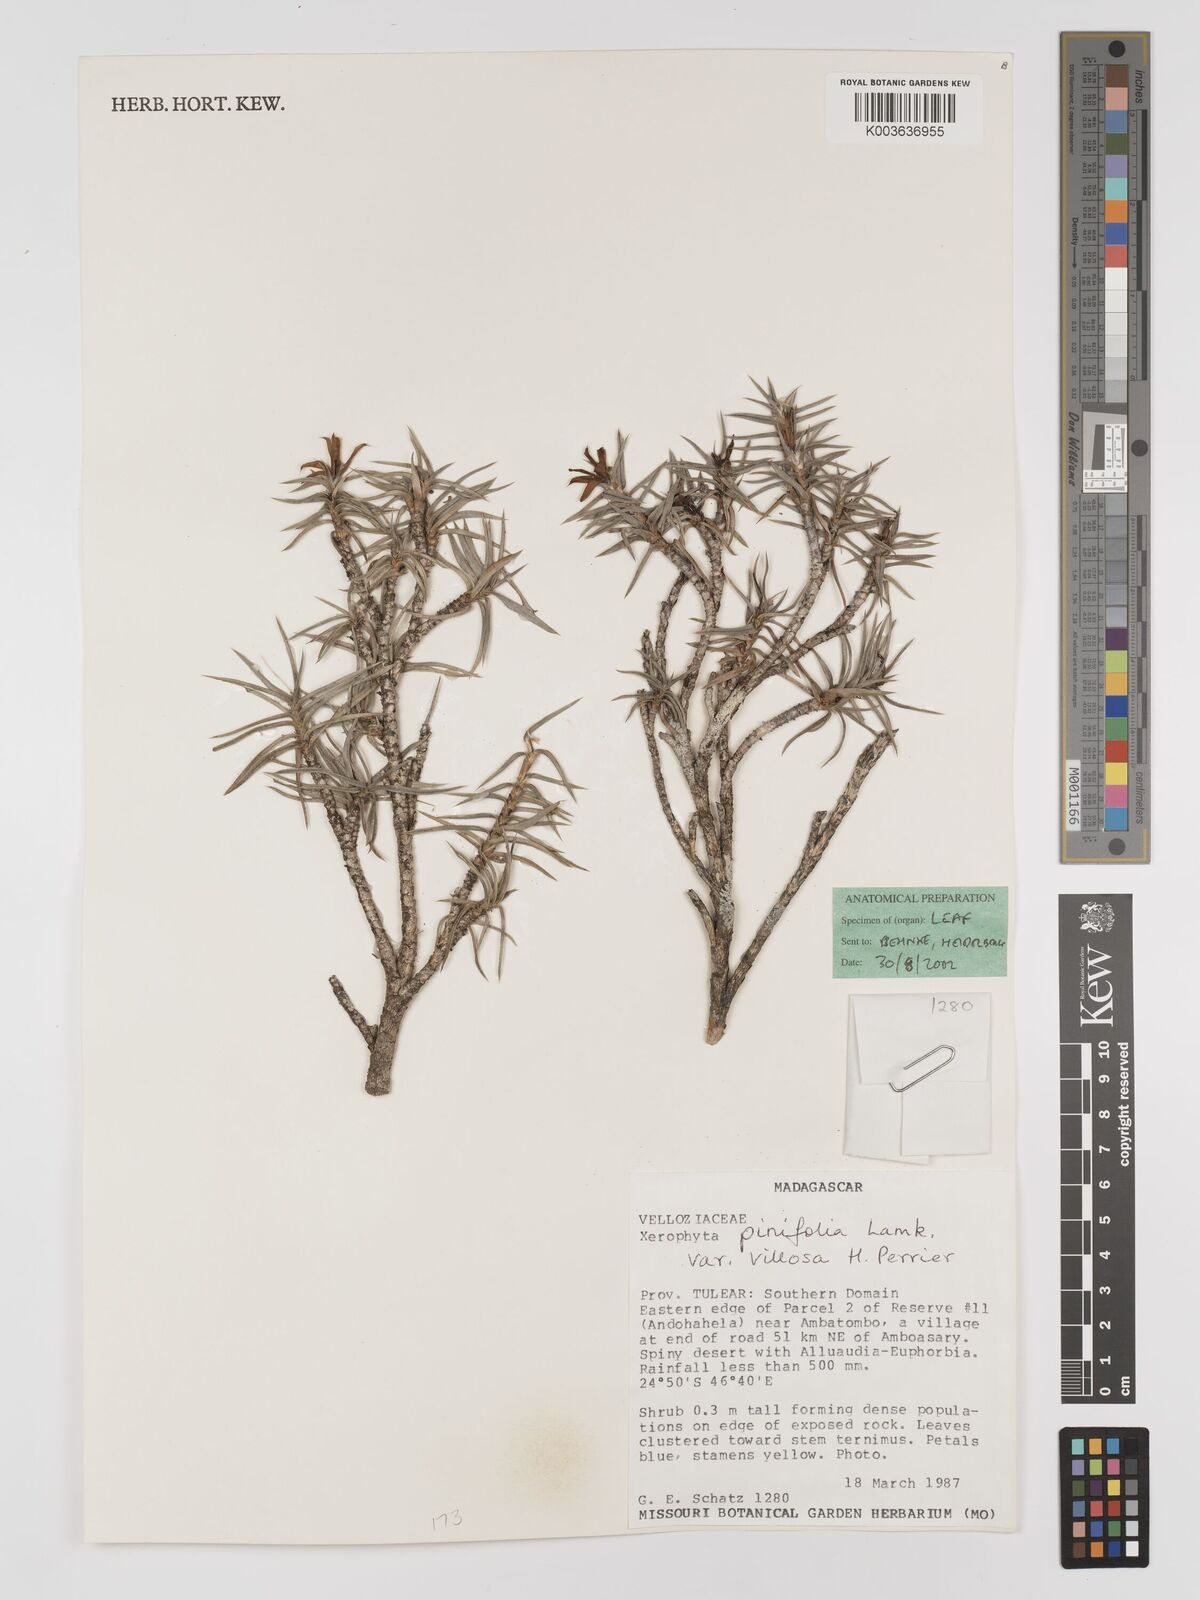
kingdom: Plantae
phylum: Tracheophyta
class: Liliopsida
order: Pandanales
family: Velloziaceae
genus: Xerophyta
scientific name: Xerophyta
